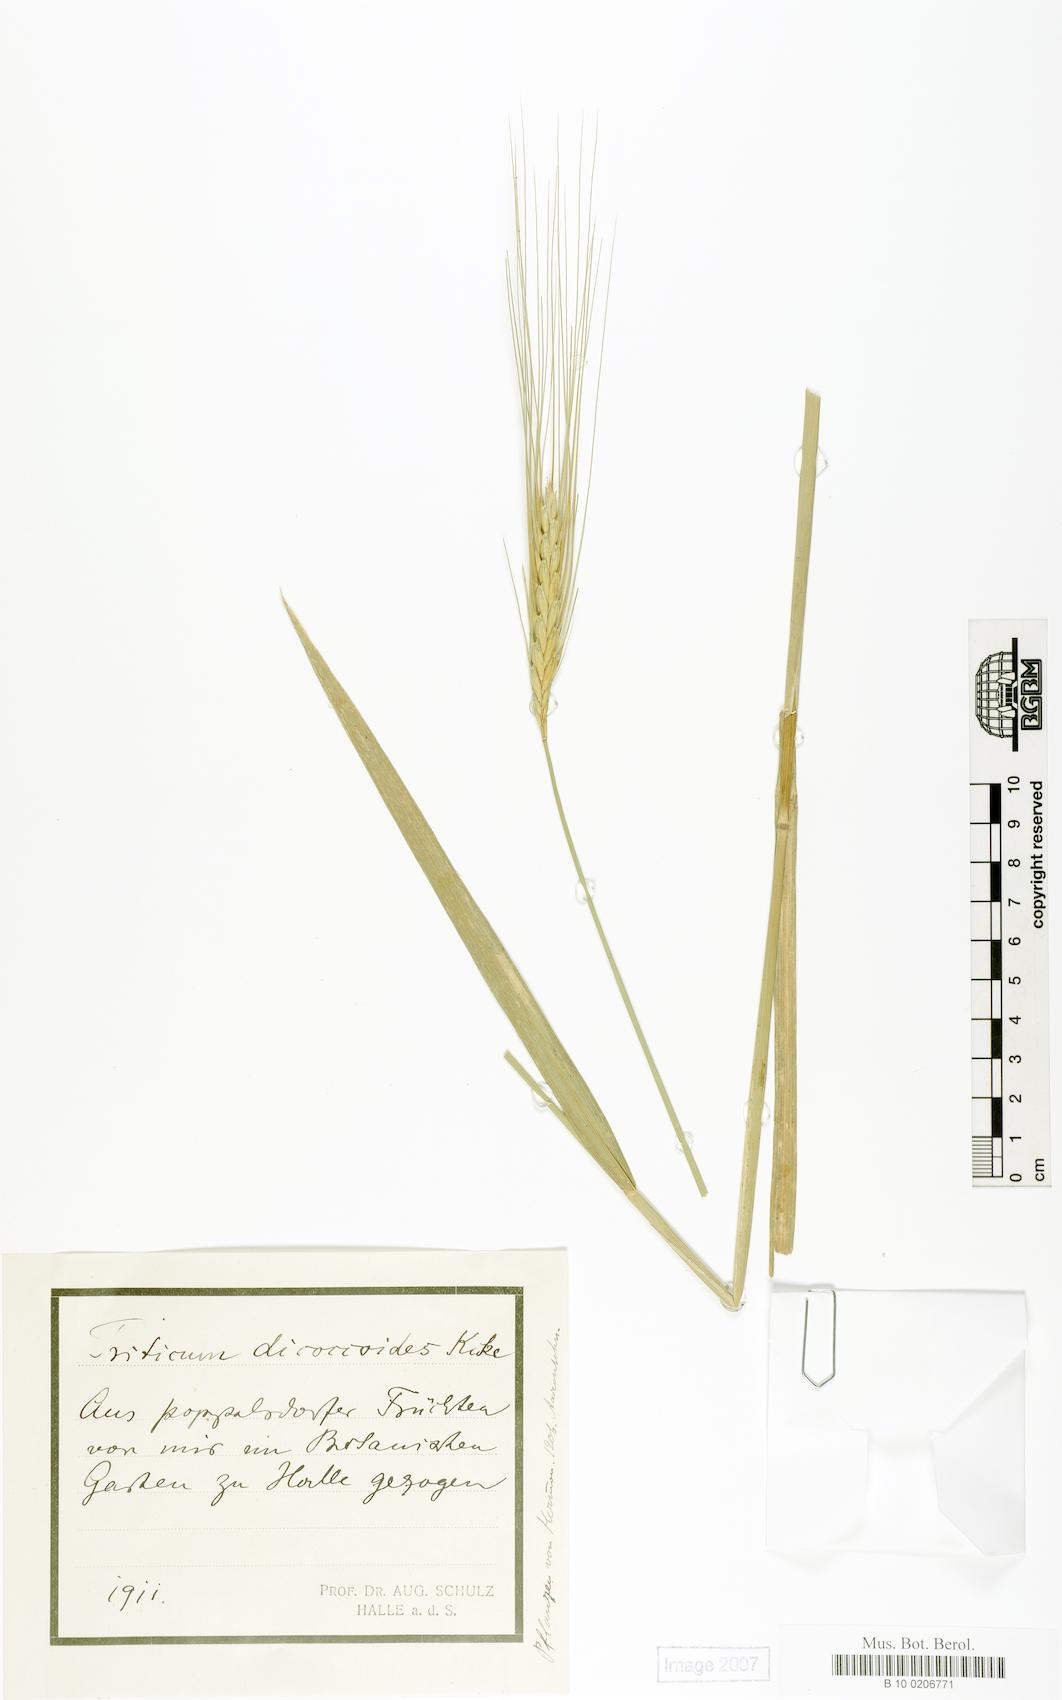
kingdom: Plantae
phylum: Tracheophyta
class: Liliopsida
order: Poales
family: Poaceae
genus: Triticum
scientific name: Triticum dicoccoides
